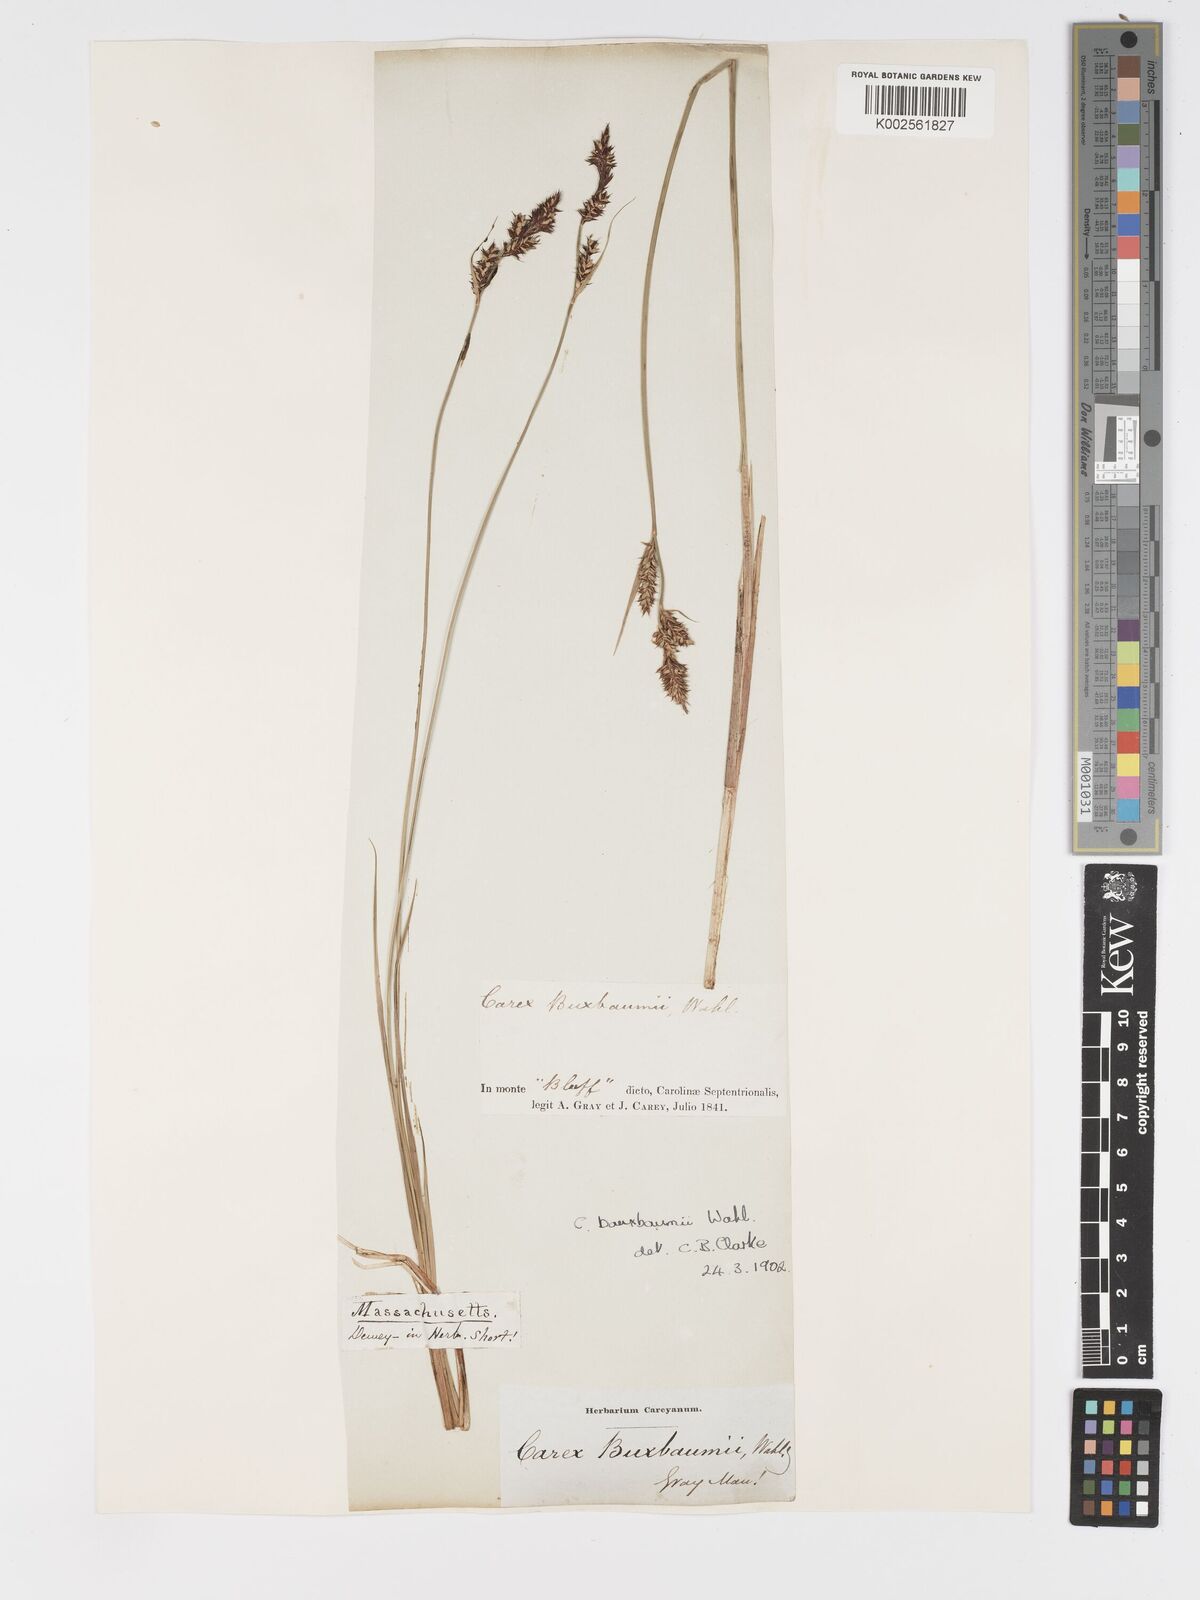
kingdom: Plantae
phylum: Tracheophyta
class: Liliopsida
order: Poales
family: Cyperaceae
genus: Carex
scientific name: Carex buxbaumii
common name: Club sedge
